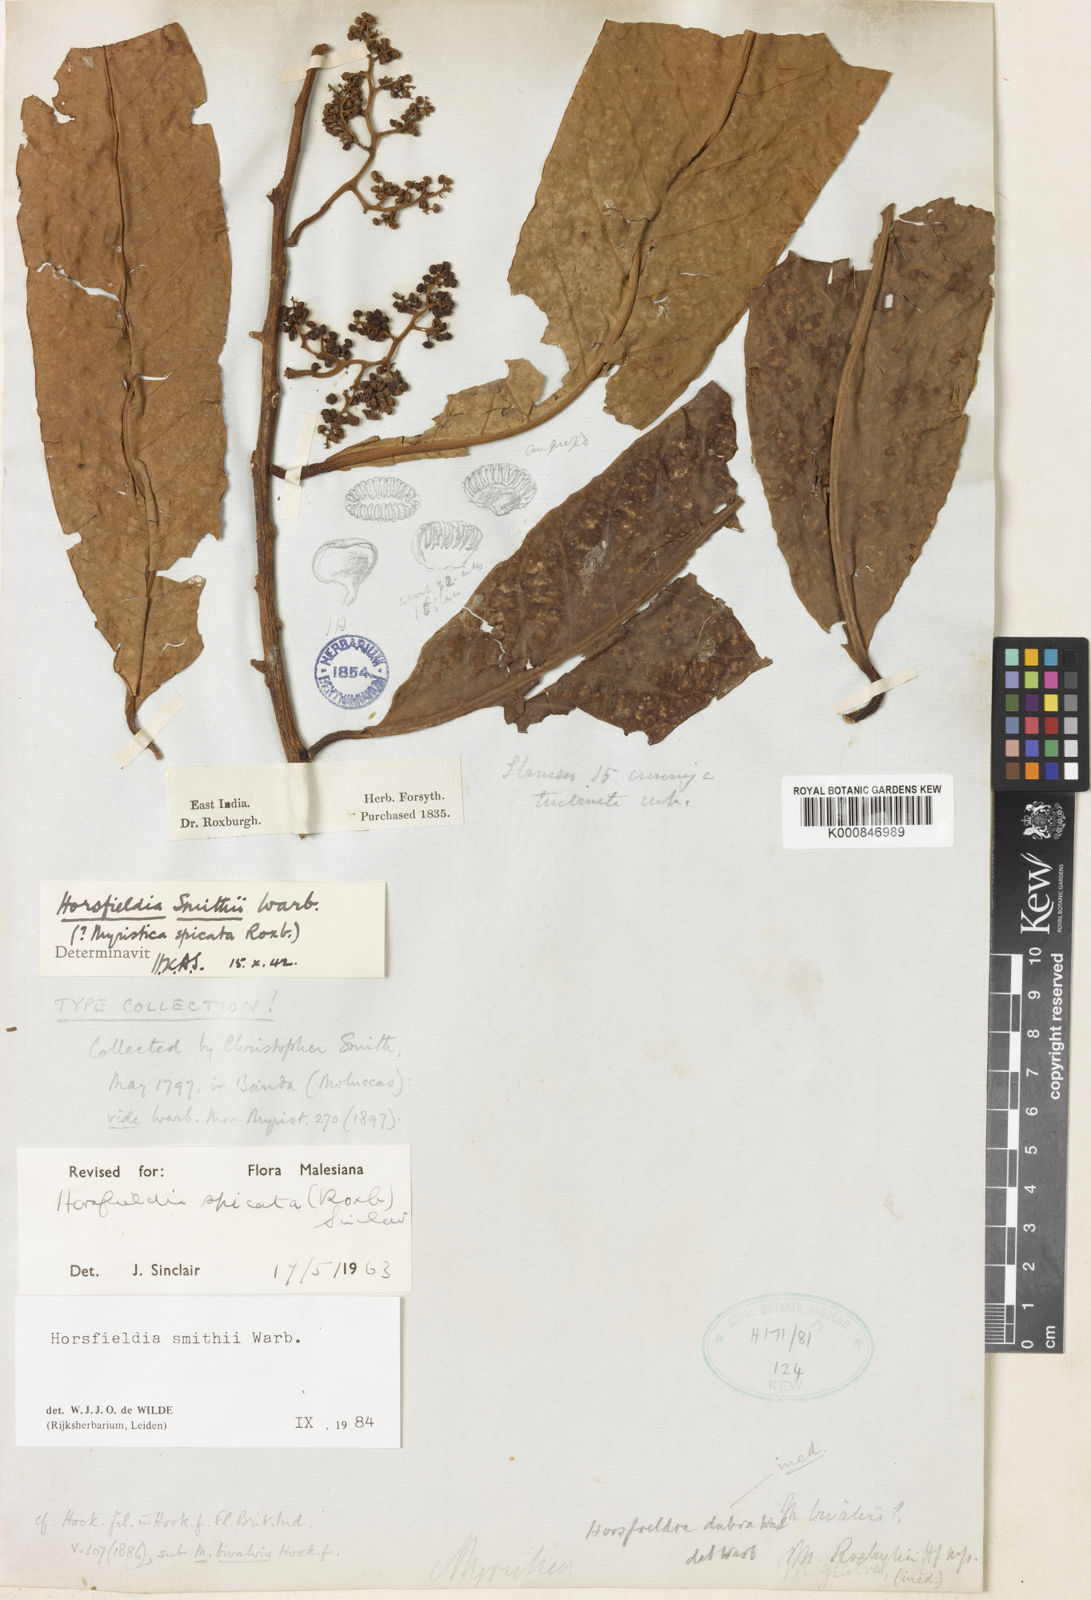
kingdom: Plantae
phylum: Tracheophyta
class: Magnoliopsida
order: Magnoliales
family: Myristicaceae
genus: Horsfieldia
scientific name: Horsfieldia smithii
